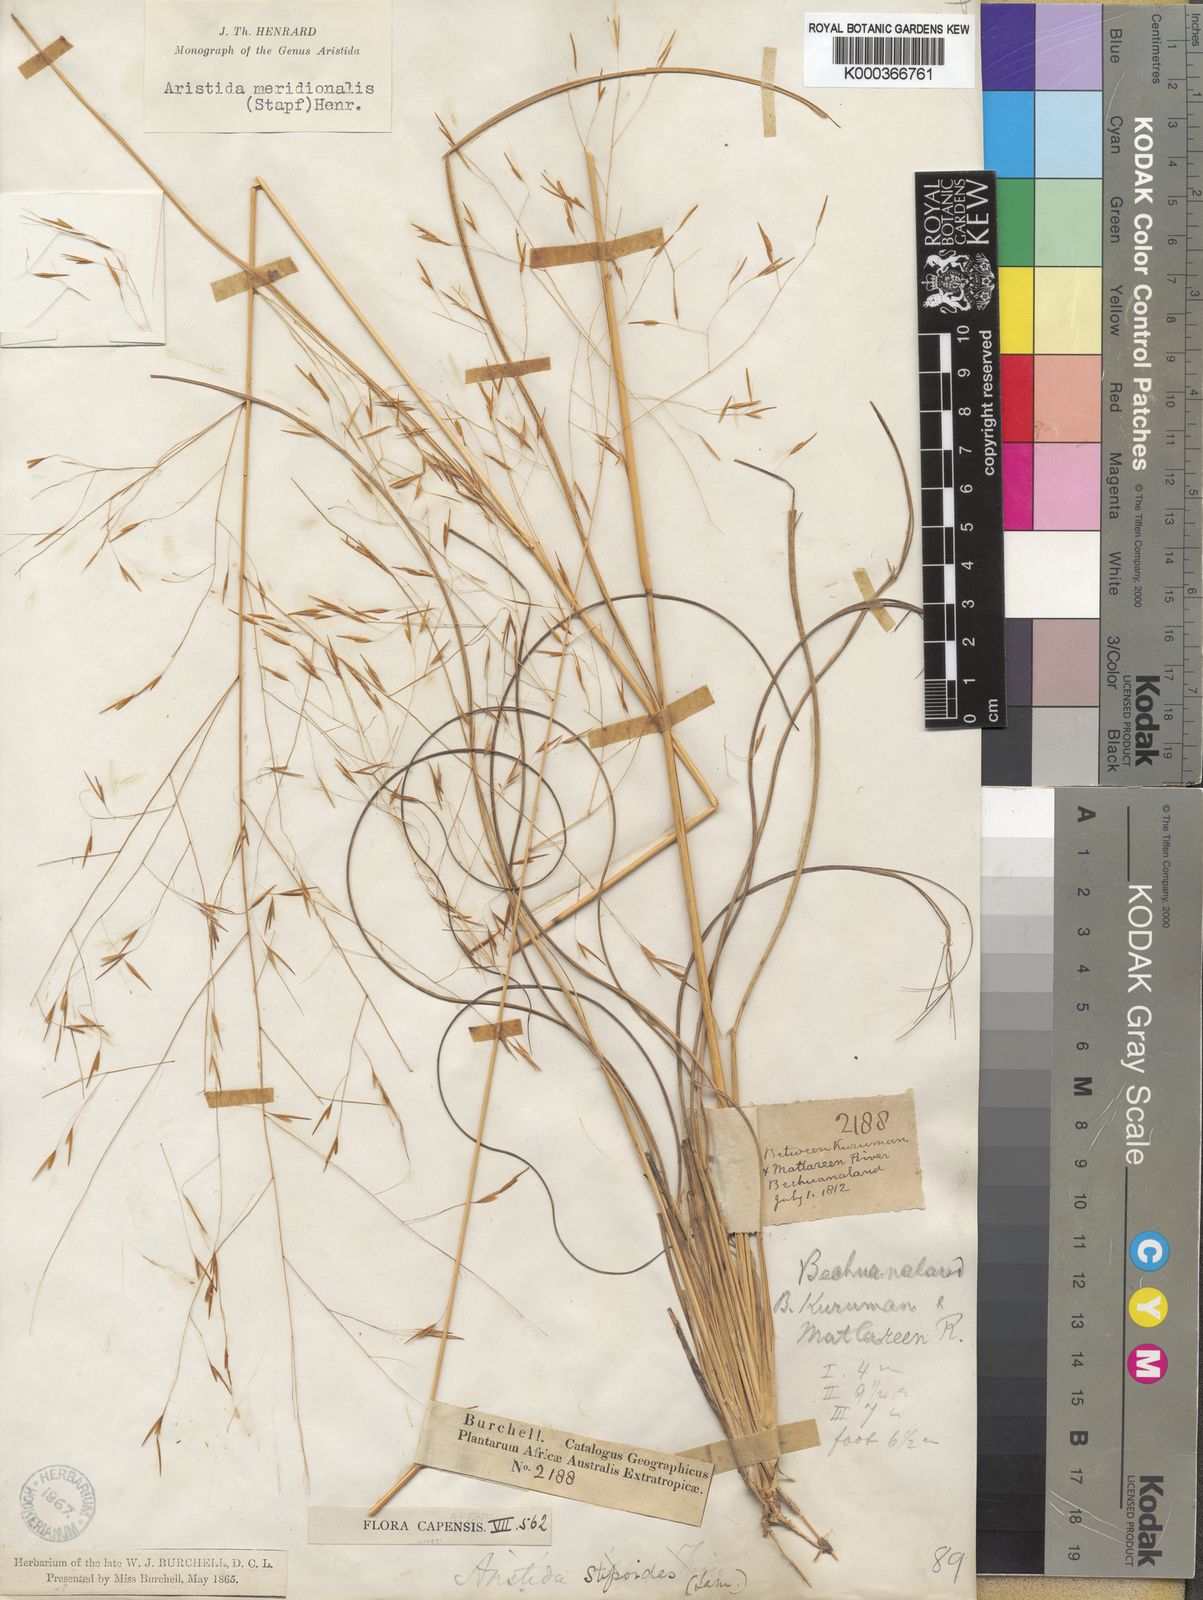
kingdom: Plantae
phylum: Tracheophyta
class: Liliopsida
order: Poales
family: Poaceae
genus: Aristida
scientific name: Aristida meridionalis
